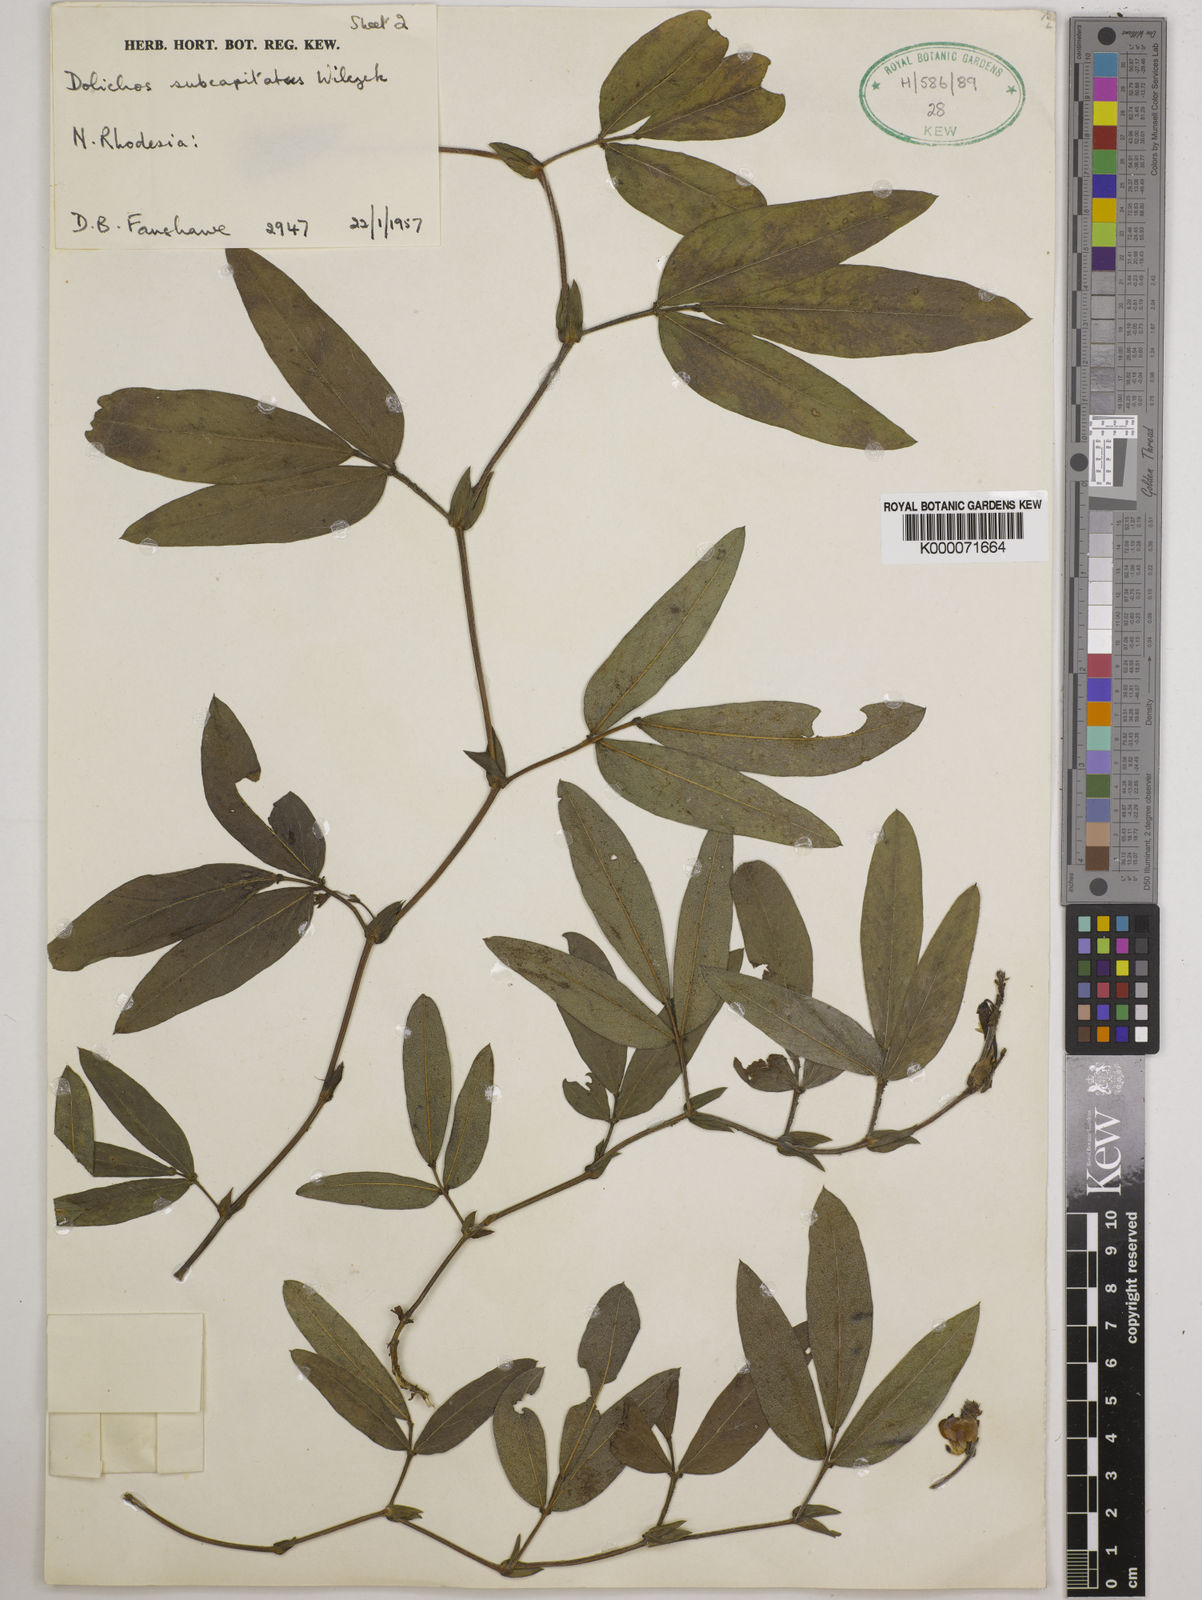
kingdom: Plantae
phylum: Tracheophyta
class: Magnoliopsida
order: Fabales
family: Fabaceae
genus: Dolichos
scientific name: Dolichos subcapitatus
